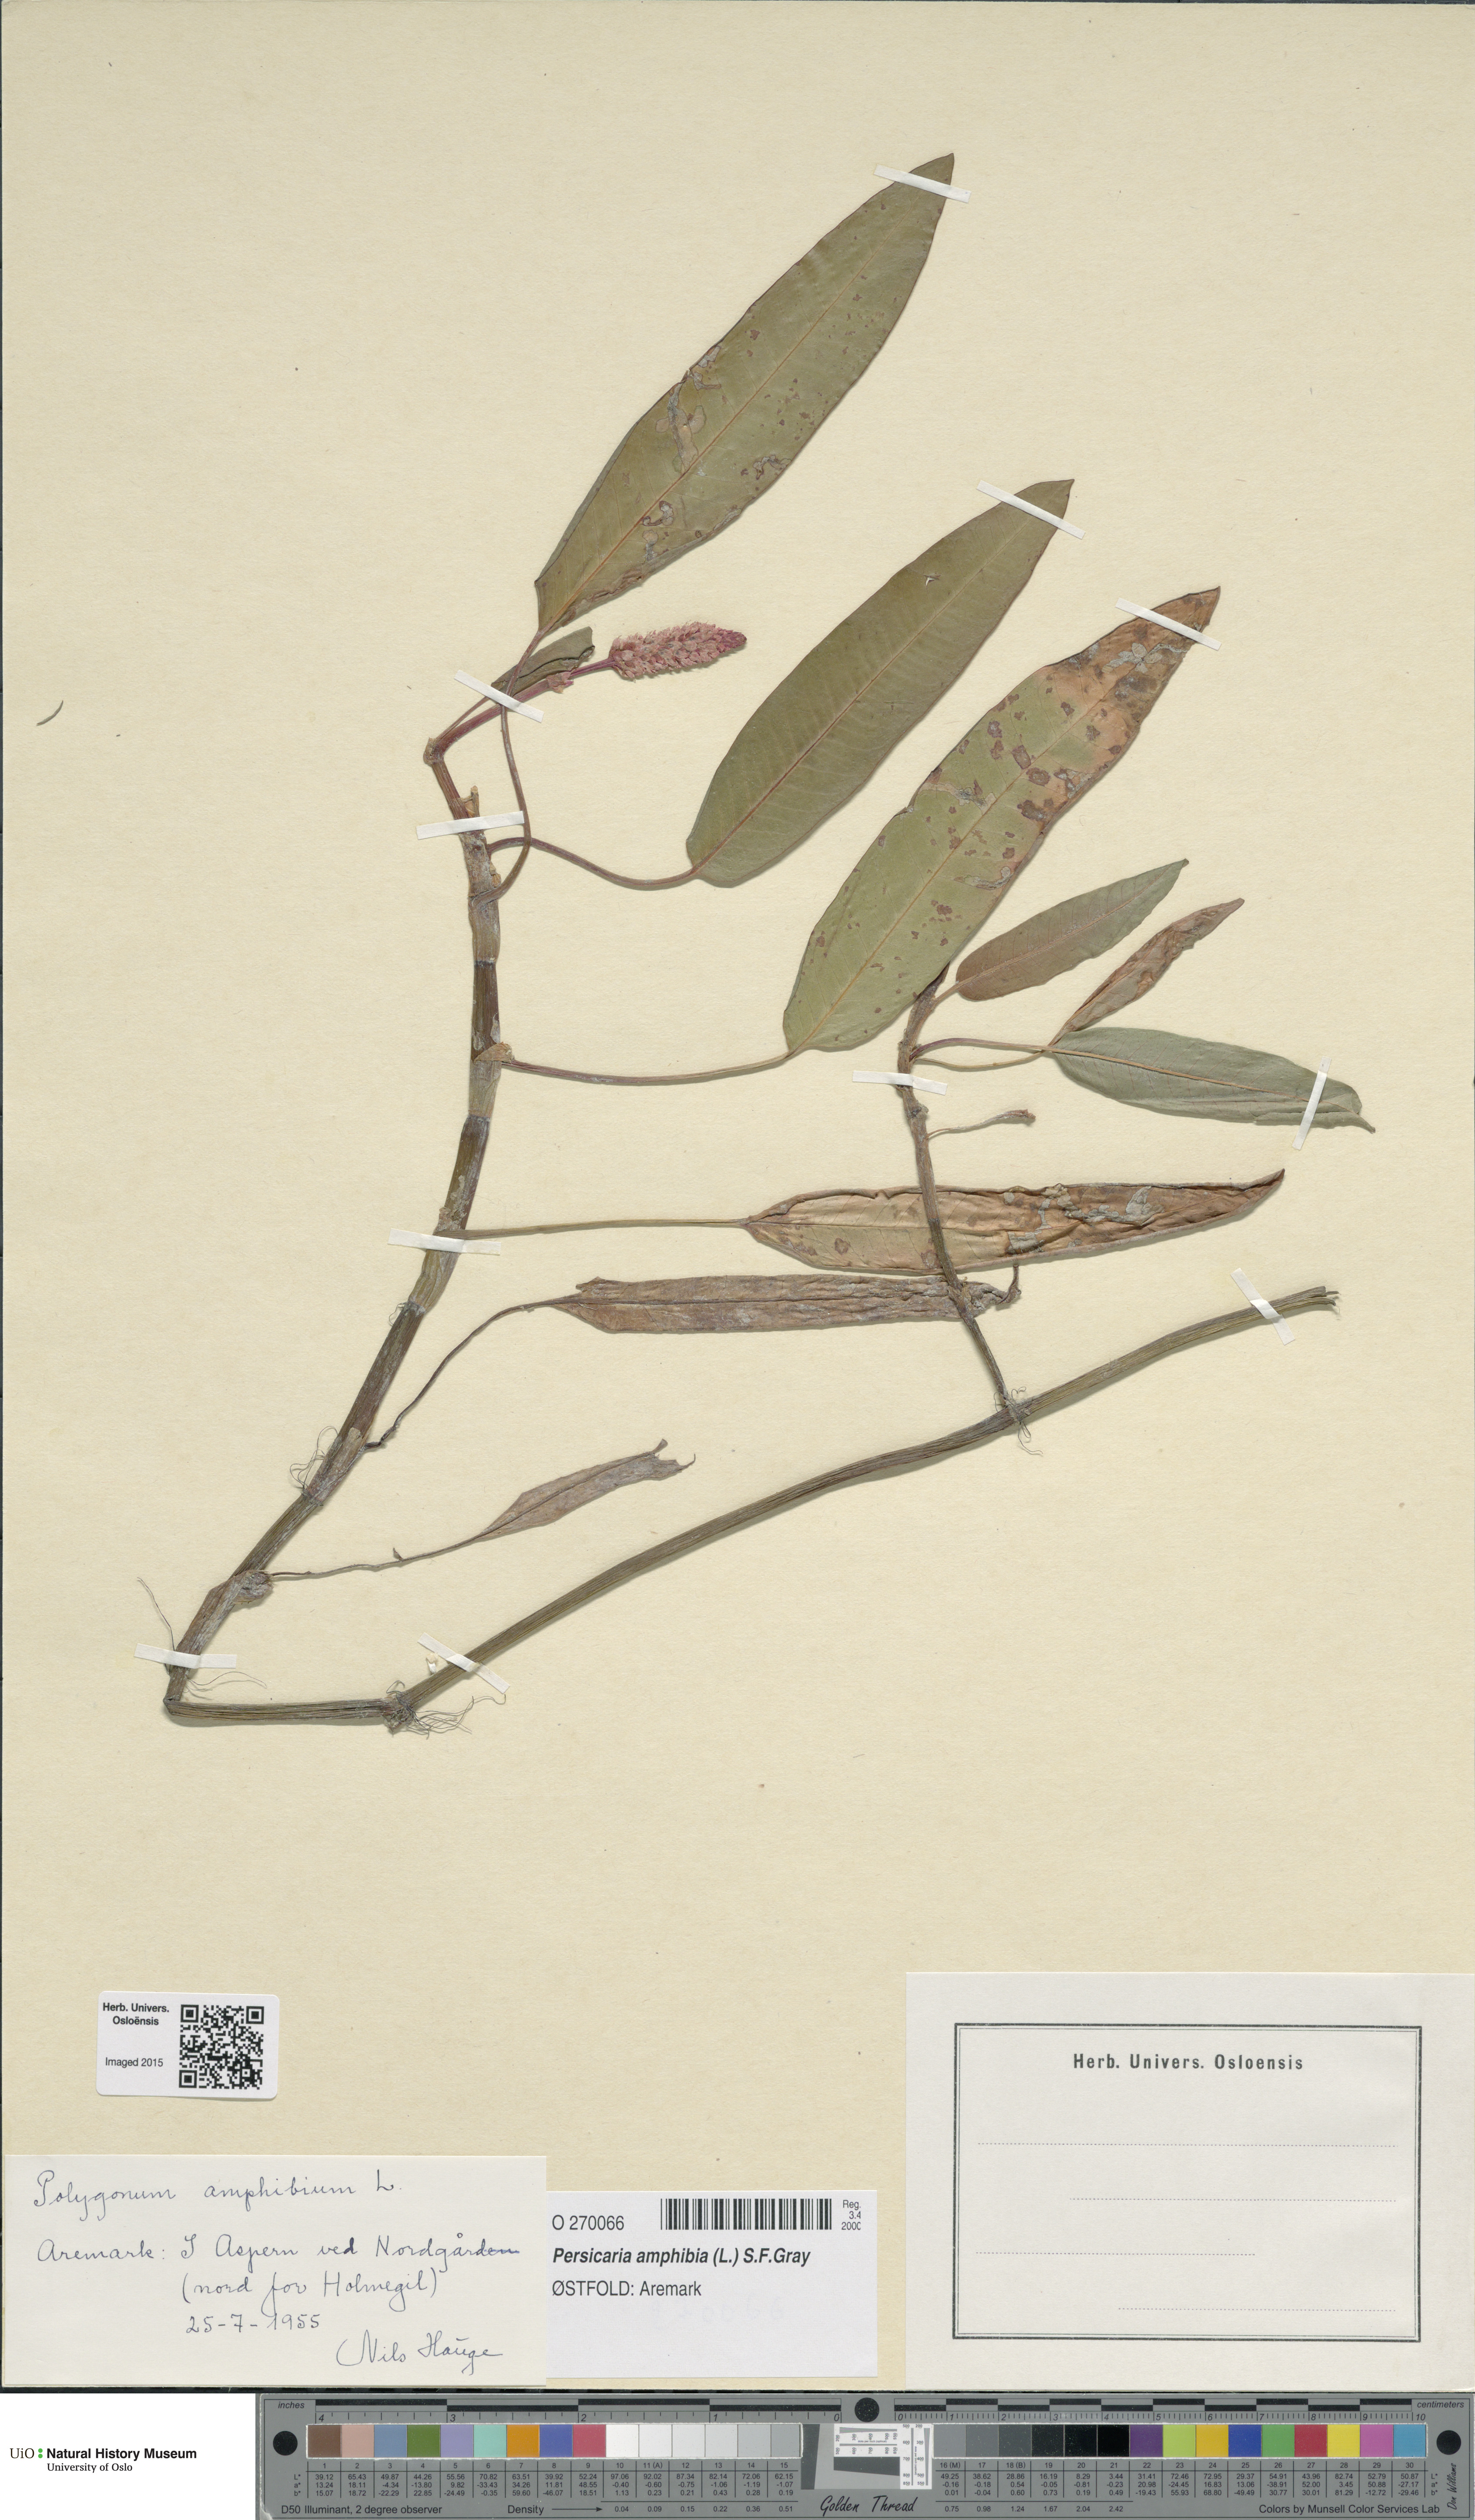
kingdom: Plantae
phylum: Tracheophyta
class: Magnoliopsida
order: Caryophyllales
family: Polygonaceae
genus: Persicaria
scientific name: Persicaria amphibia
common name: Amphibious bistort
